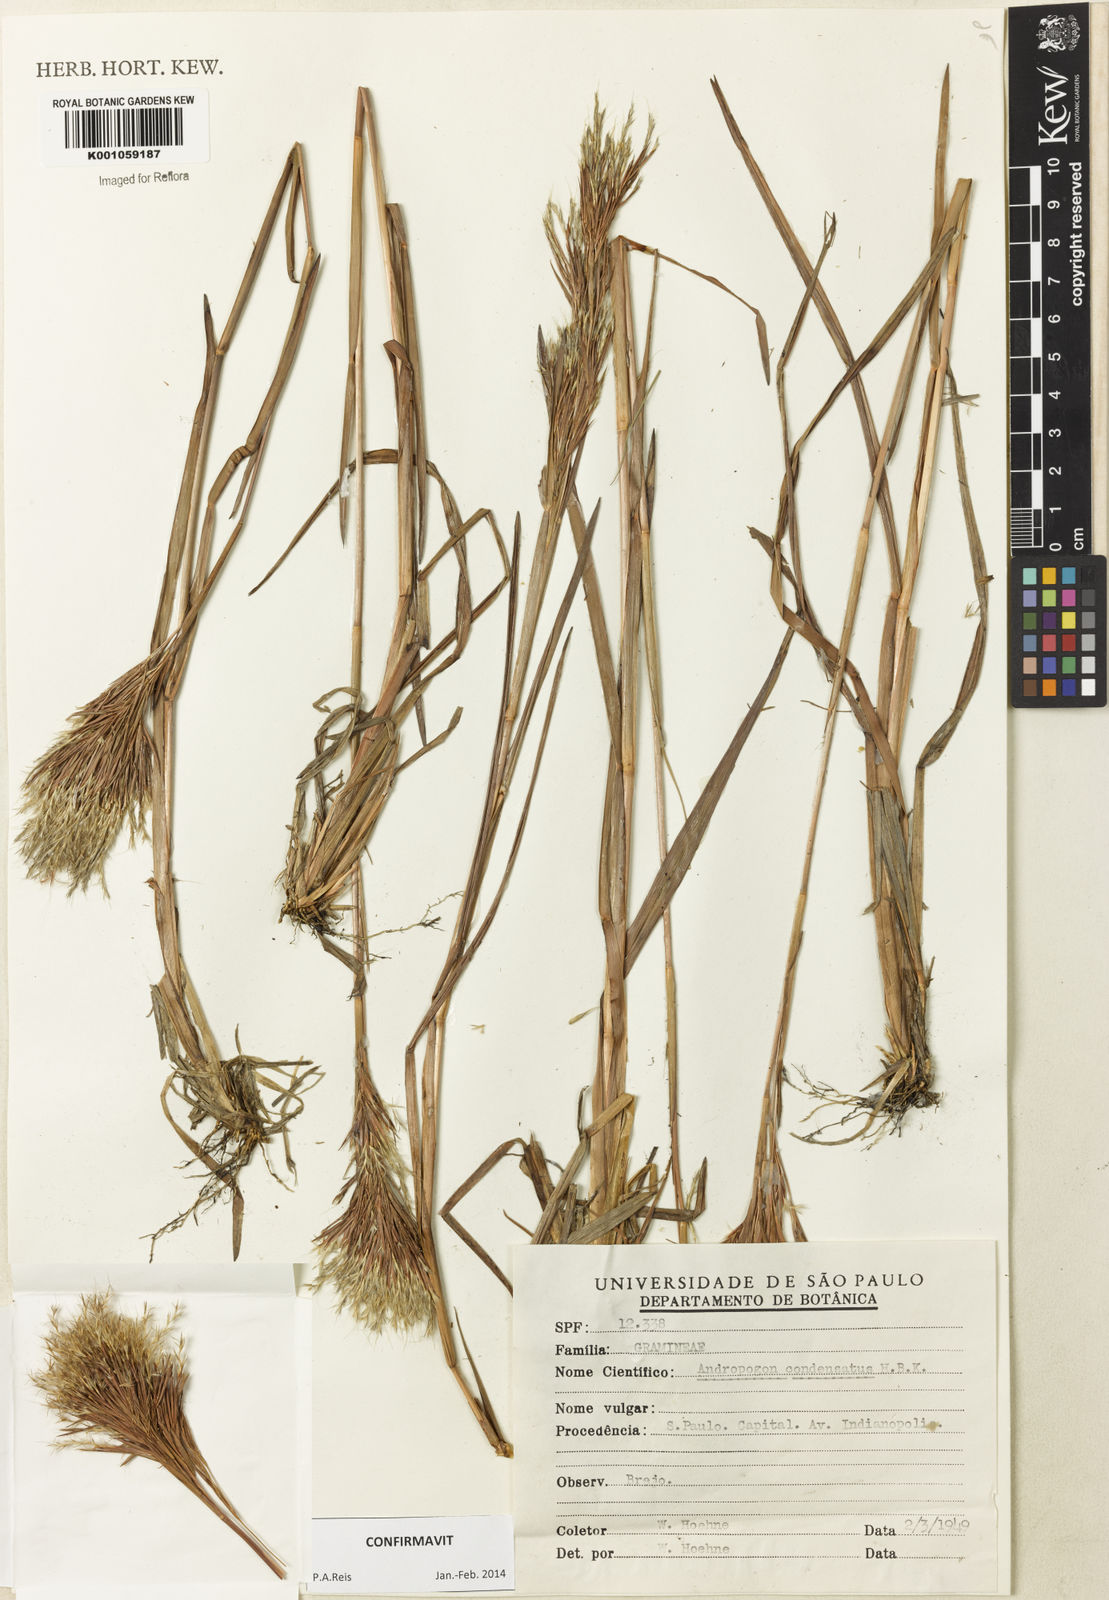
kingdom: Plantae
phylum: Tracheophyta
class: Liliopsida
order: Poales
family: Poaceae
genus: Schizachyrium
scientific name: Schizachyrium condensatum
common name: Bush beardgrass
